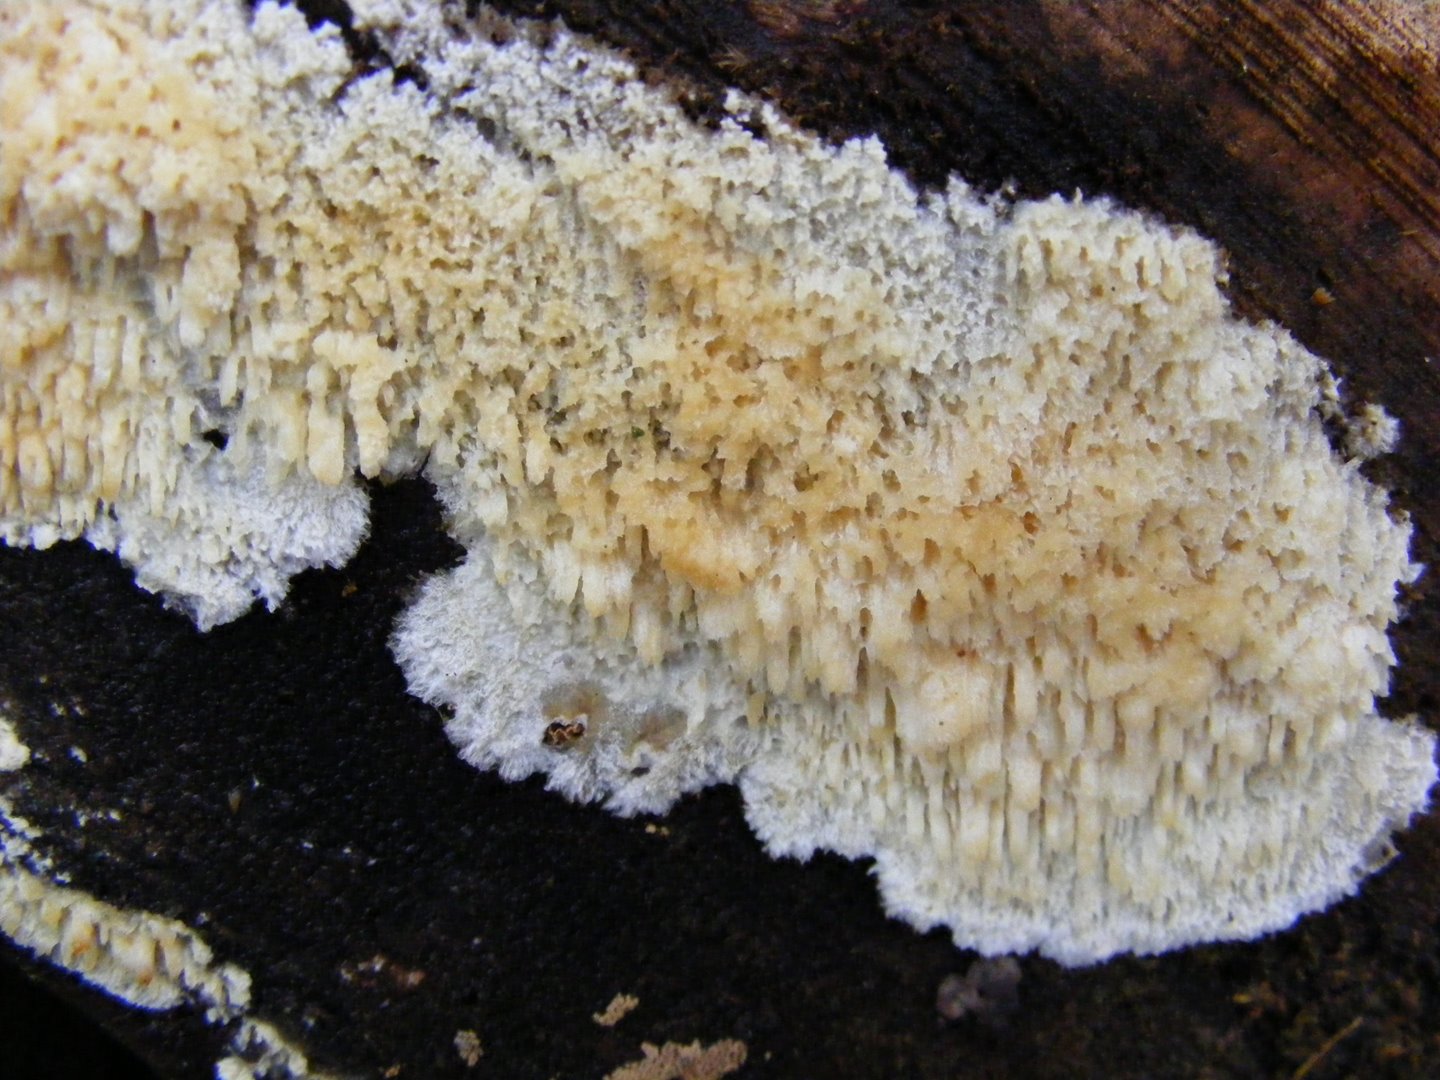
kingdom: Fungi
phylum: Basidiomycota
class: Agaricomycetes
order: Hymenochaetales
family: Schizoporaceae
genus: Schizopora
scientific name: Schizopora paradoxa
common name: hvid tandsvamp
